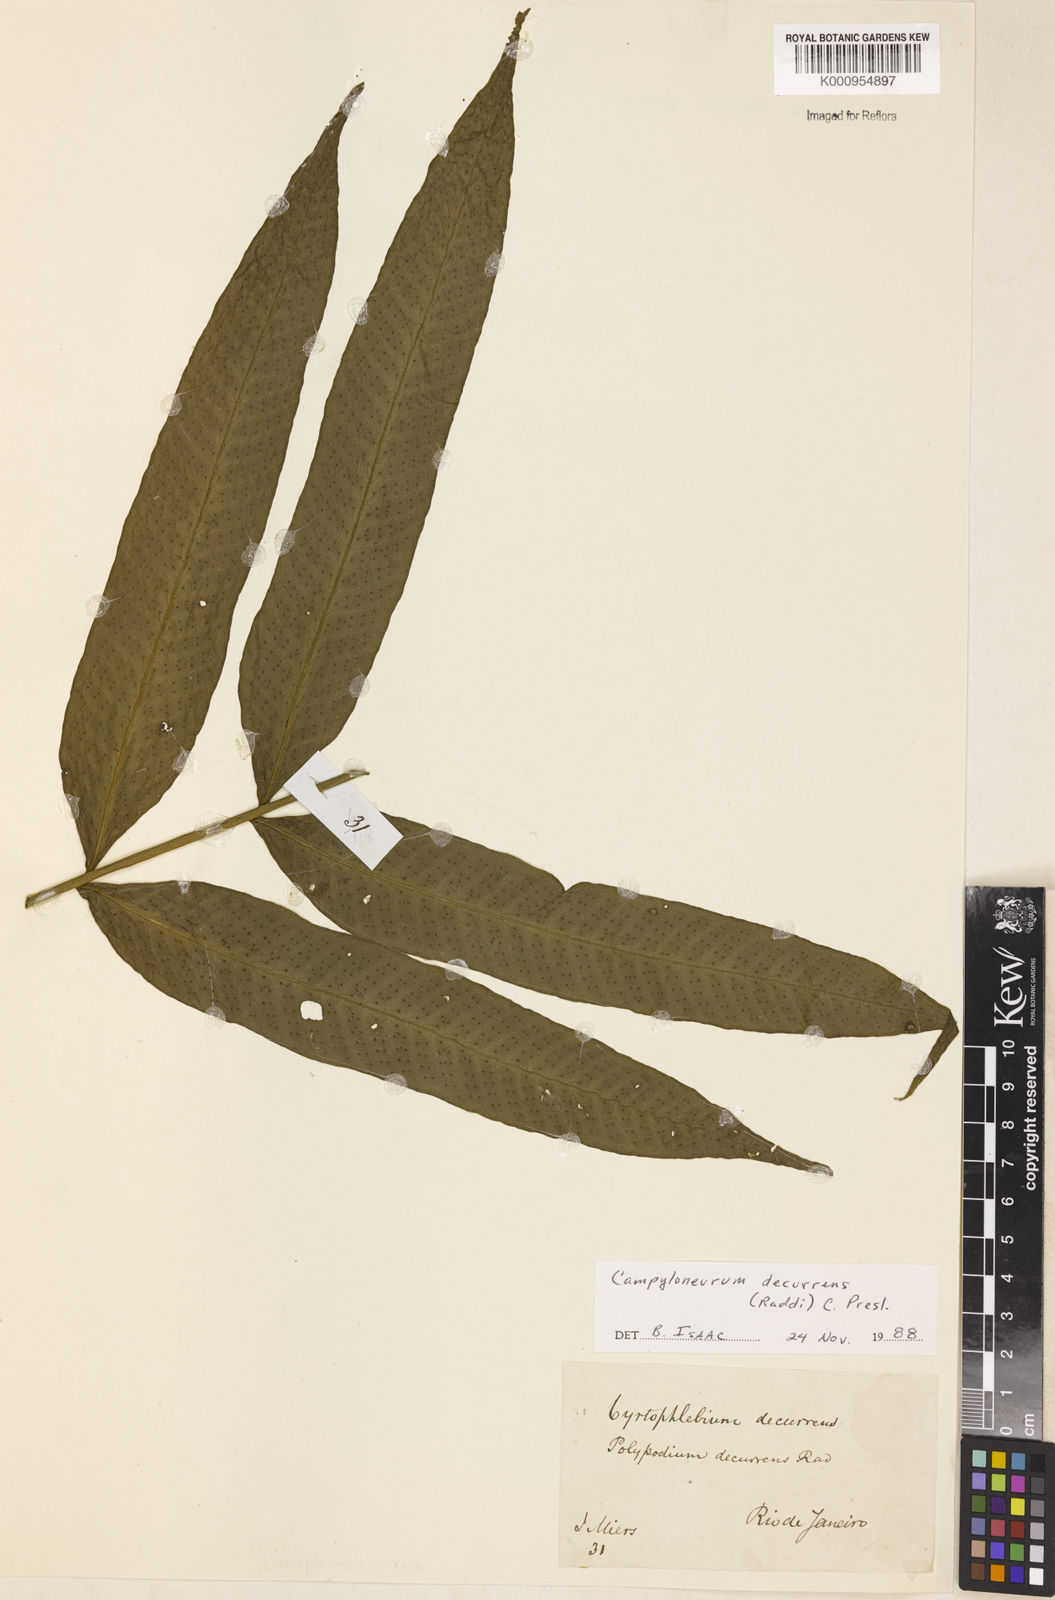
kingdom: Plantae
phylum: Tracheophyta
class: Polypodiopsida
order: Polypodiales
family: Polypodiaceae
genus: Campyloneurum
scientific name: Campyloneurum decurrens
